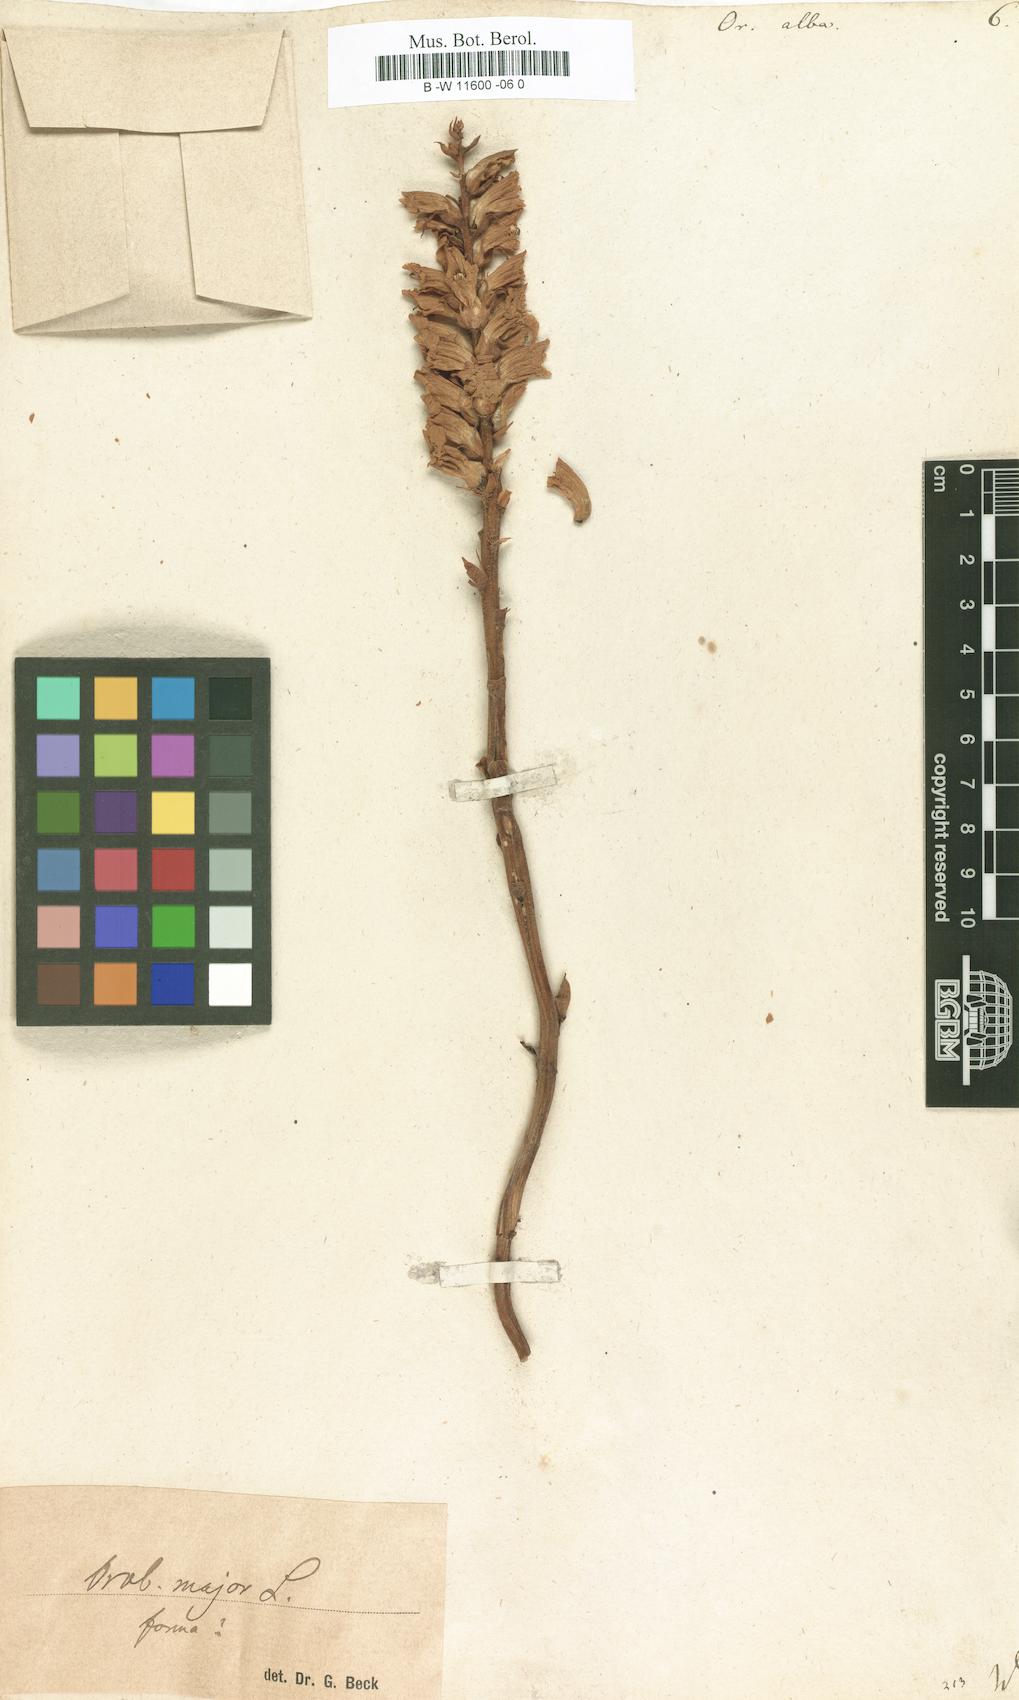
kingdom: Plantae
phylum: Tracheophyta
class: Magnoliopsida
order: Lamiales
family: Orobanchaceae
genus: Orobanche
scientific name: Orobanche alba
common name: Thyme broomrape
